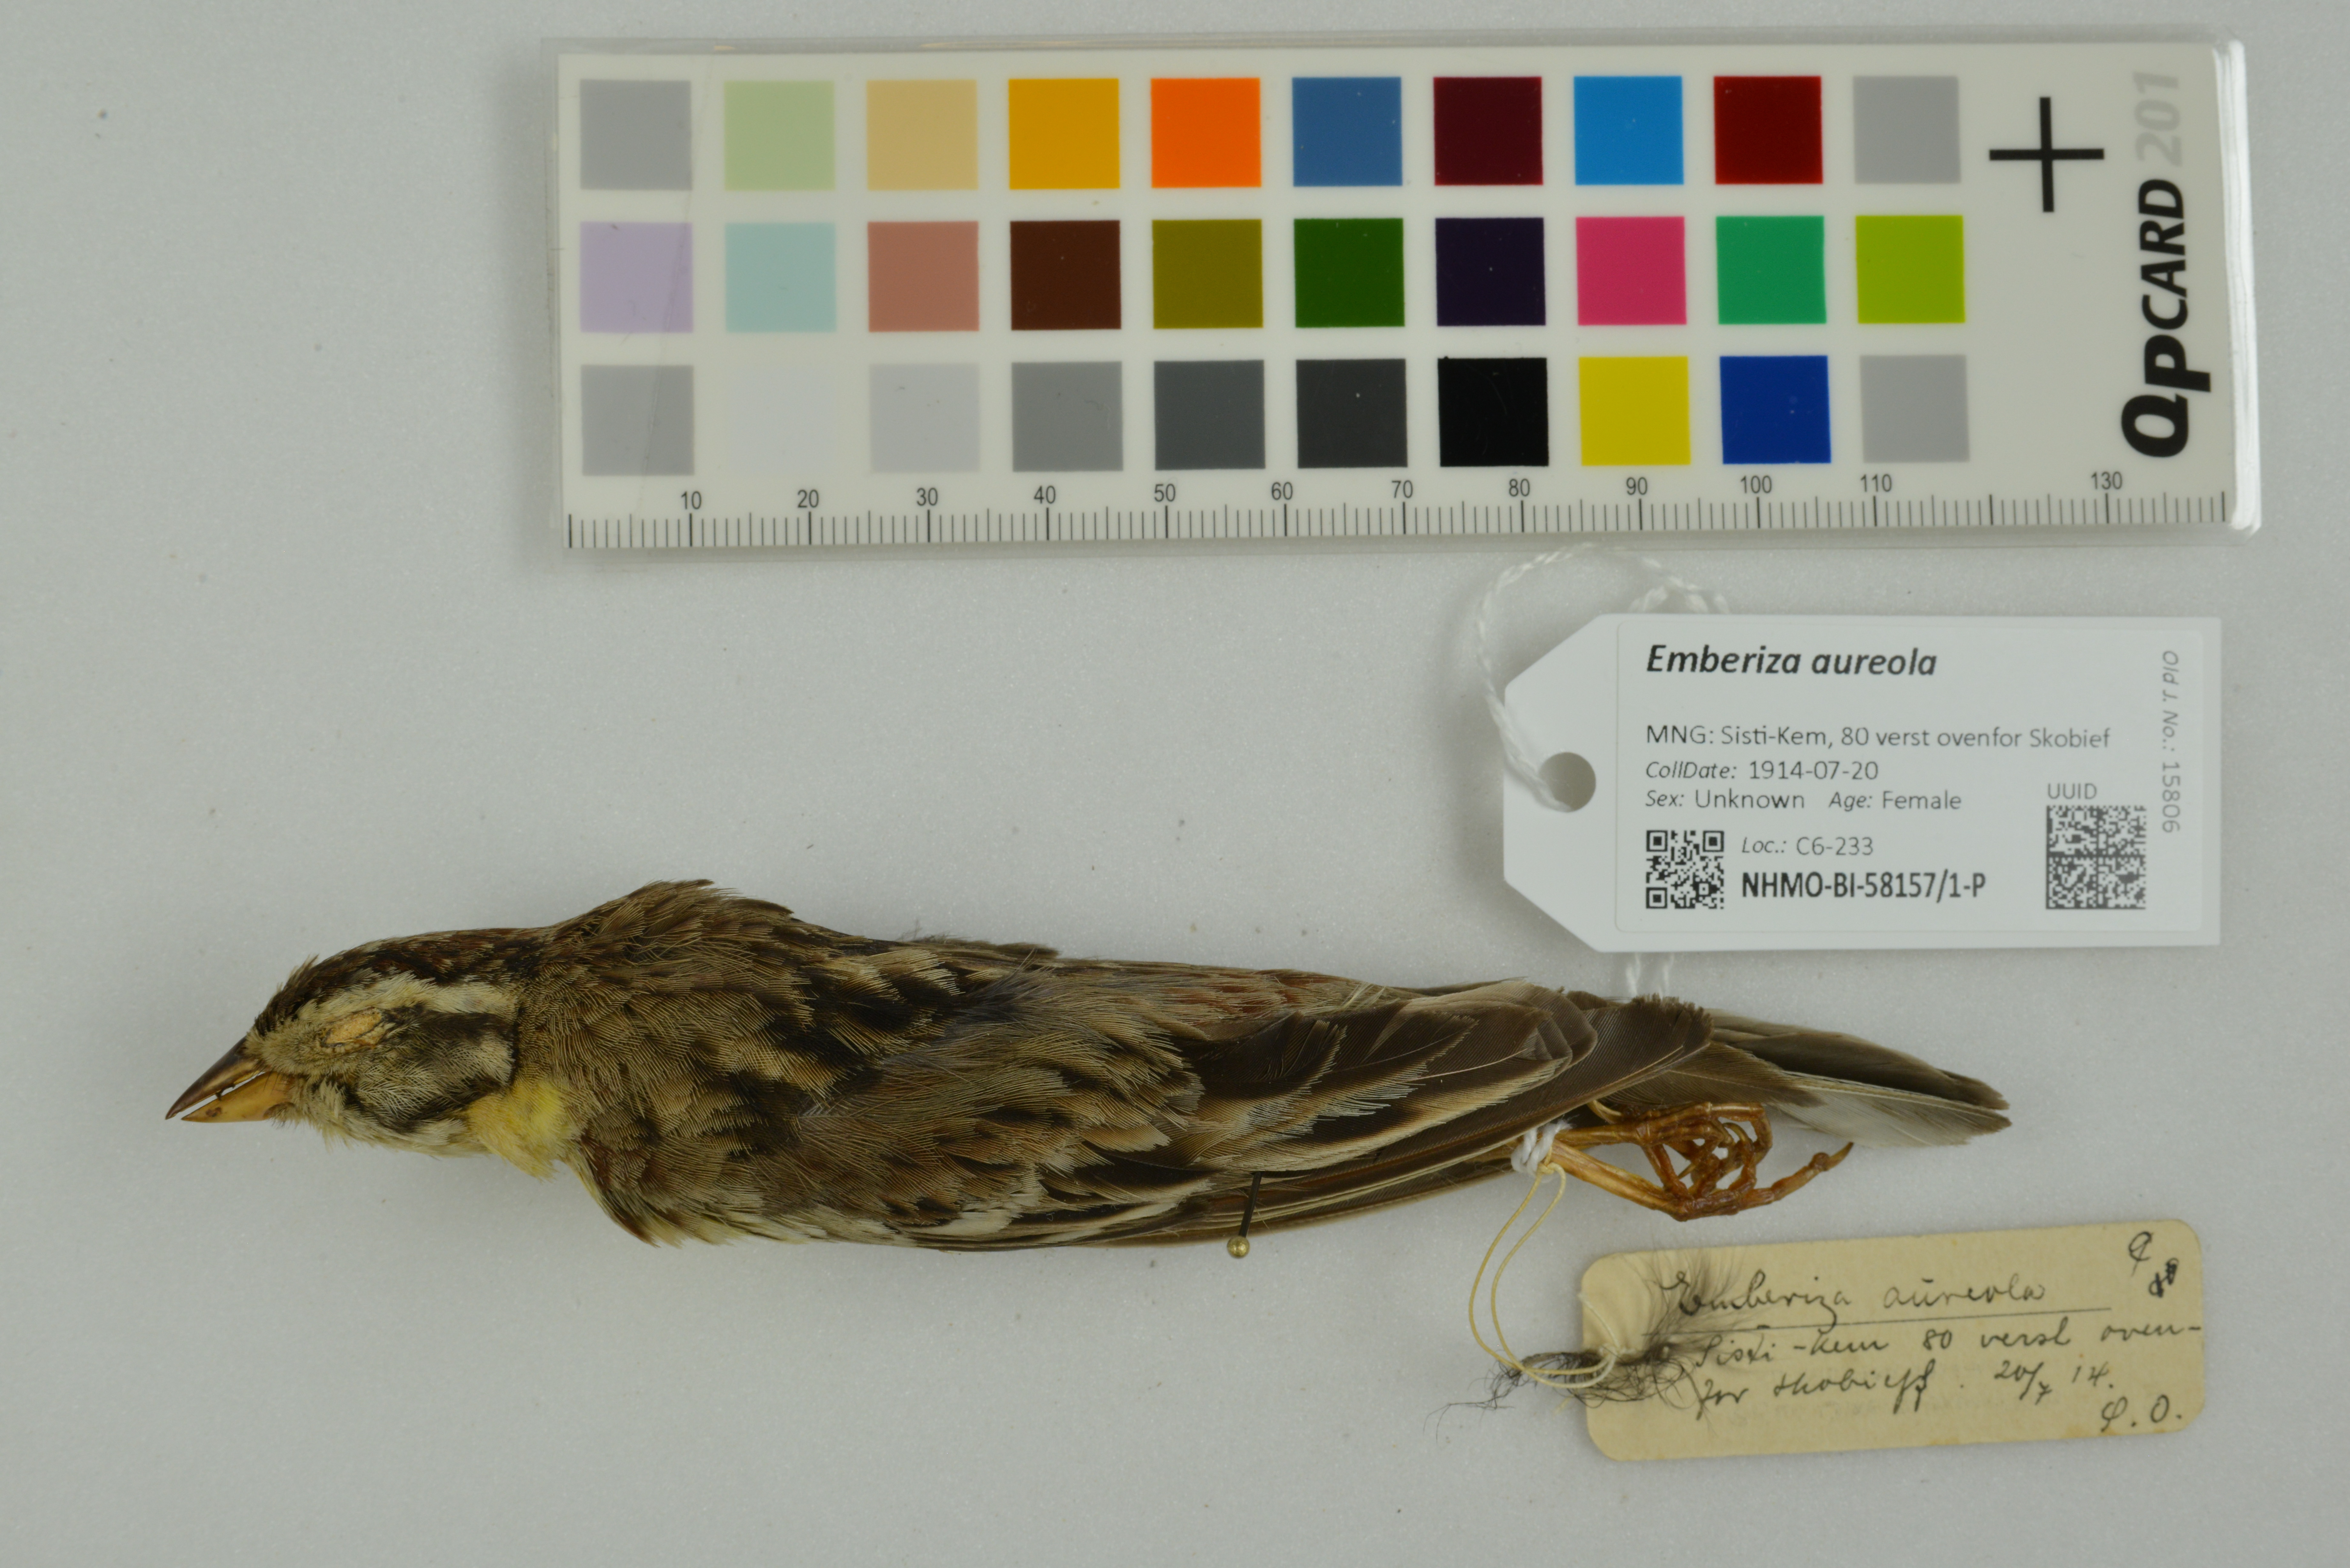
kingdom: Animalia
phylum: Chordata
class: Aves
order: Passeriformes
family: Emberizidae
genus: Emberiza
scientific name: Emberiza aureola
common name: Yellow-breasted bunting
